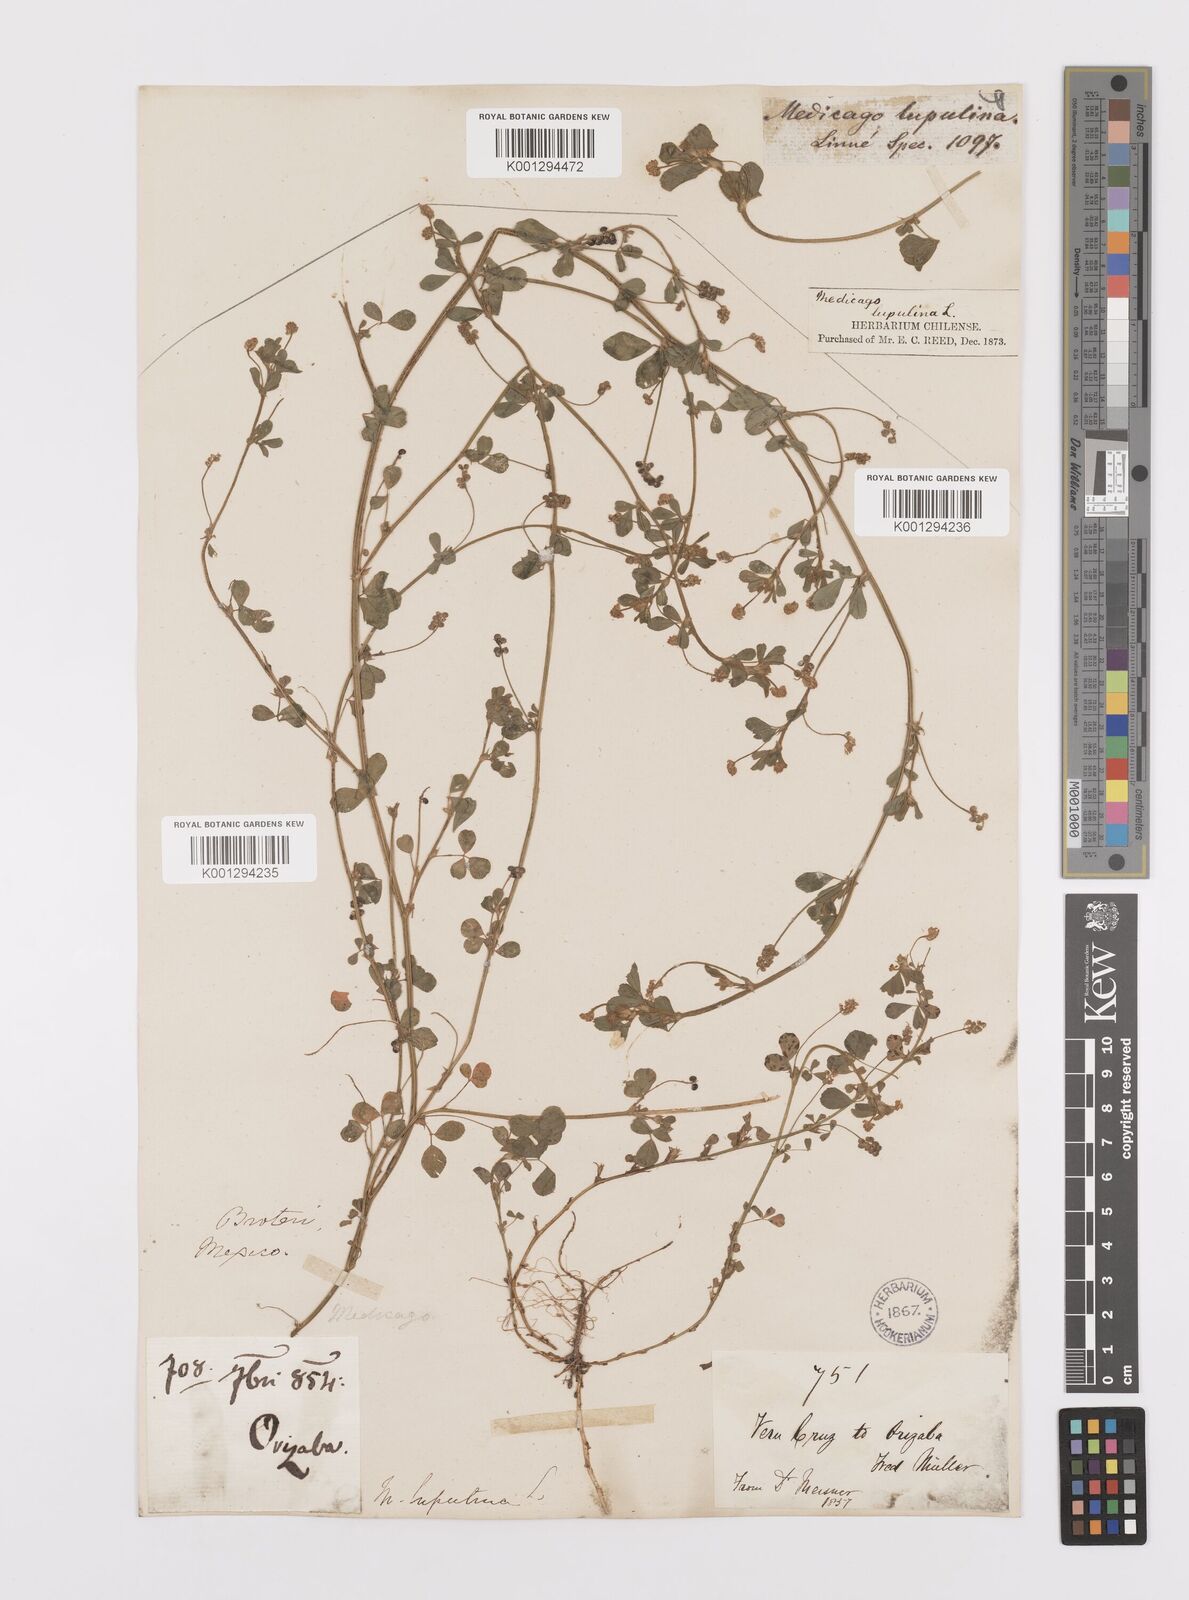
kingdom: Plantae
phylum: Tracheophyta
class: Magnoliopsida
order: Fabales
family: Fabaceae
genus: Medicago
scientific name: Medicago lupulina
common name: Black medick
